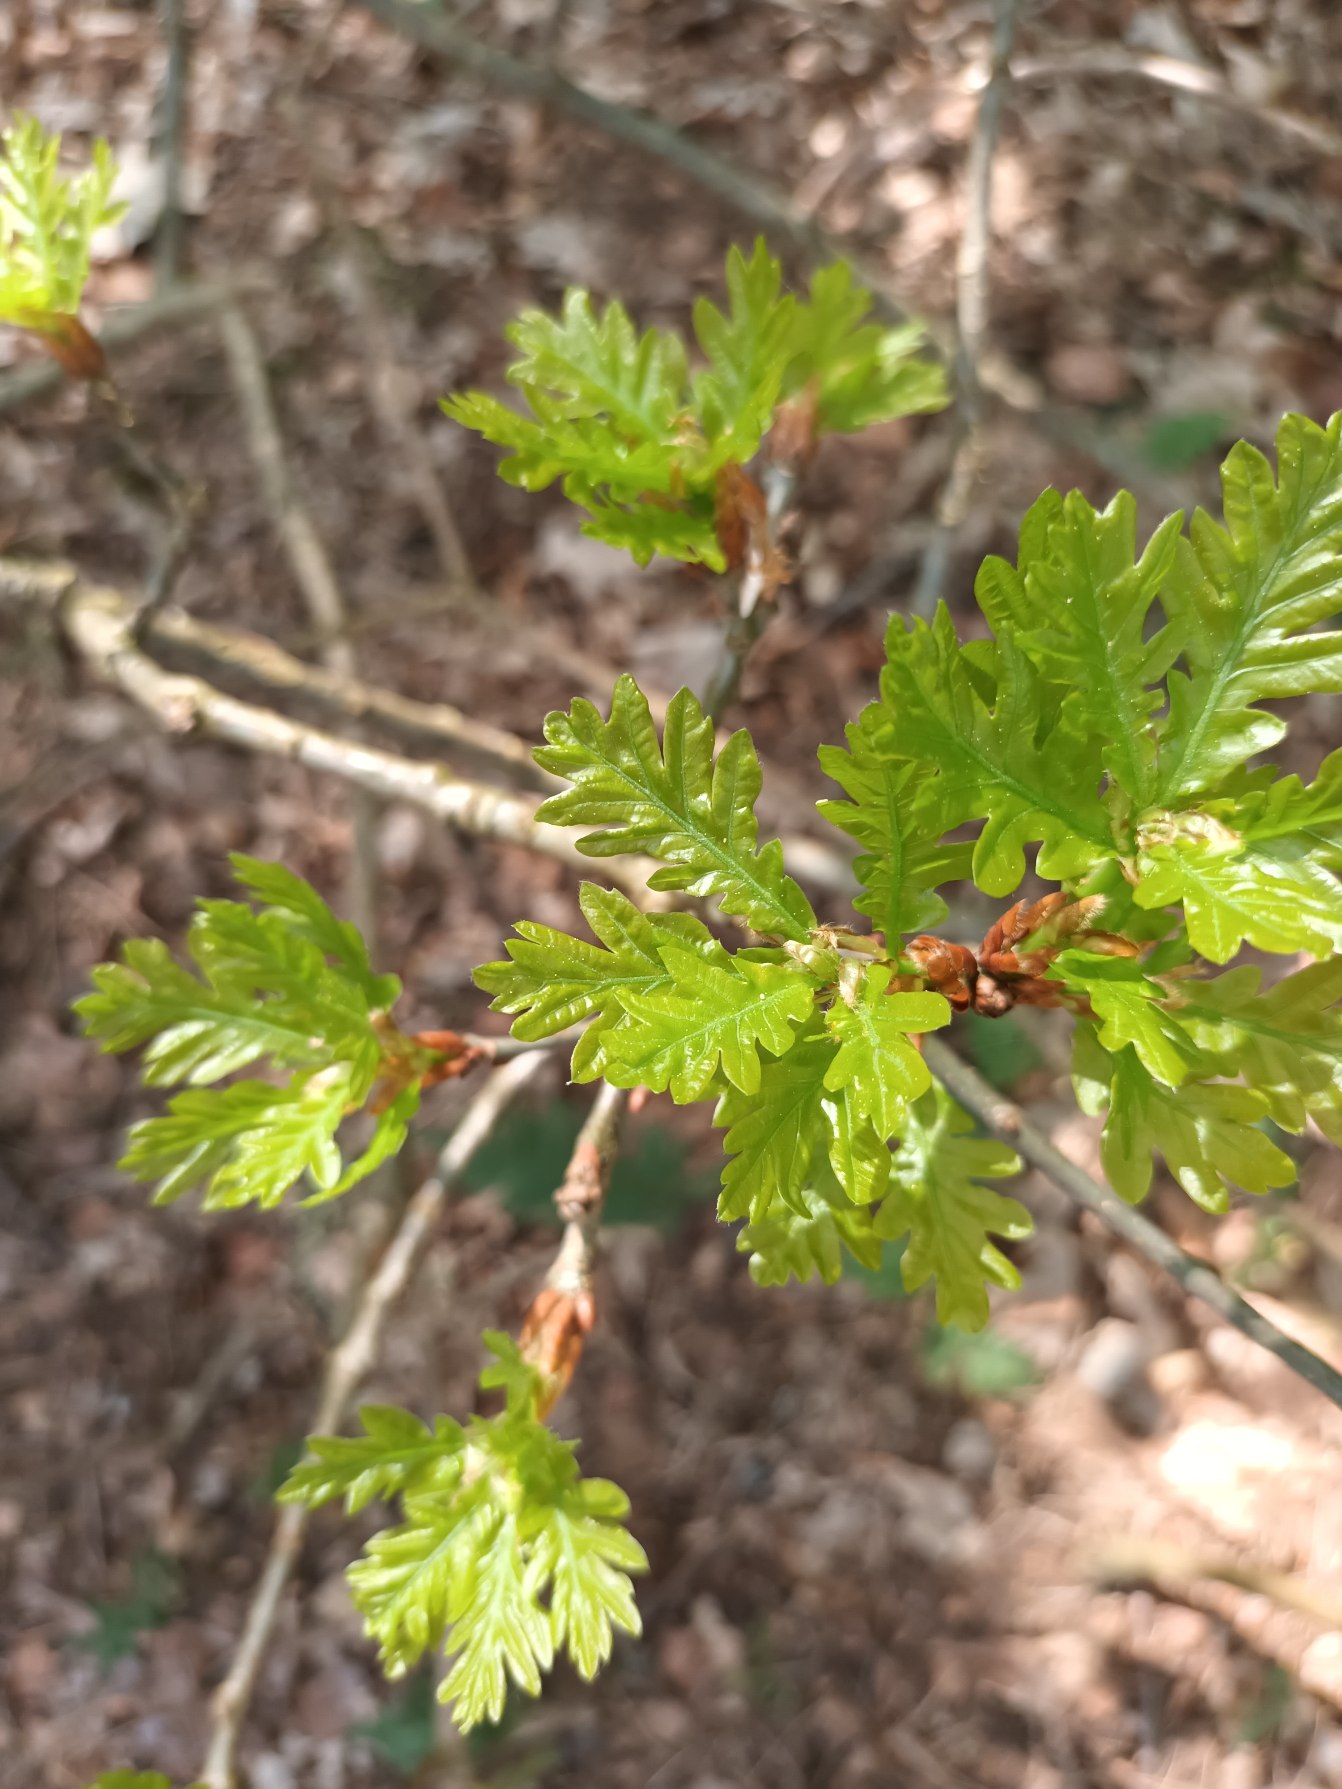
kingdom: Plantae
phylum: Tracheophyta
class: Magnoliopsida
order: Fagales
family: Fagaceae
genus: Quercus
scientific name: Quercus robur
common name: Stilk-eg/almindelig eg
